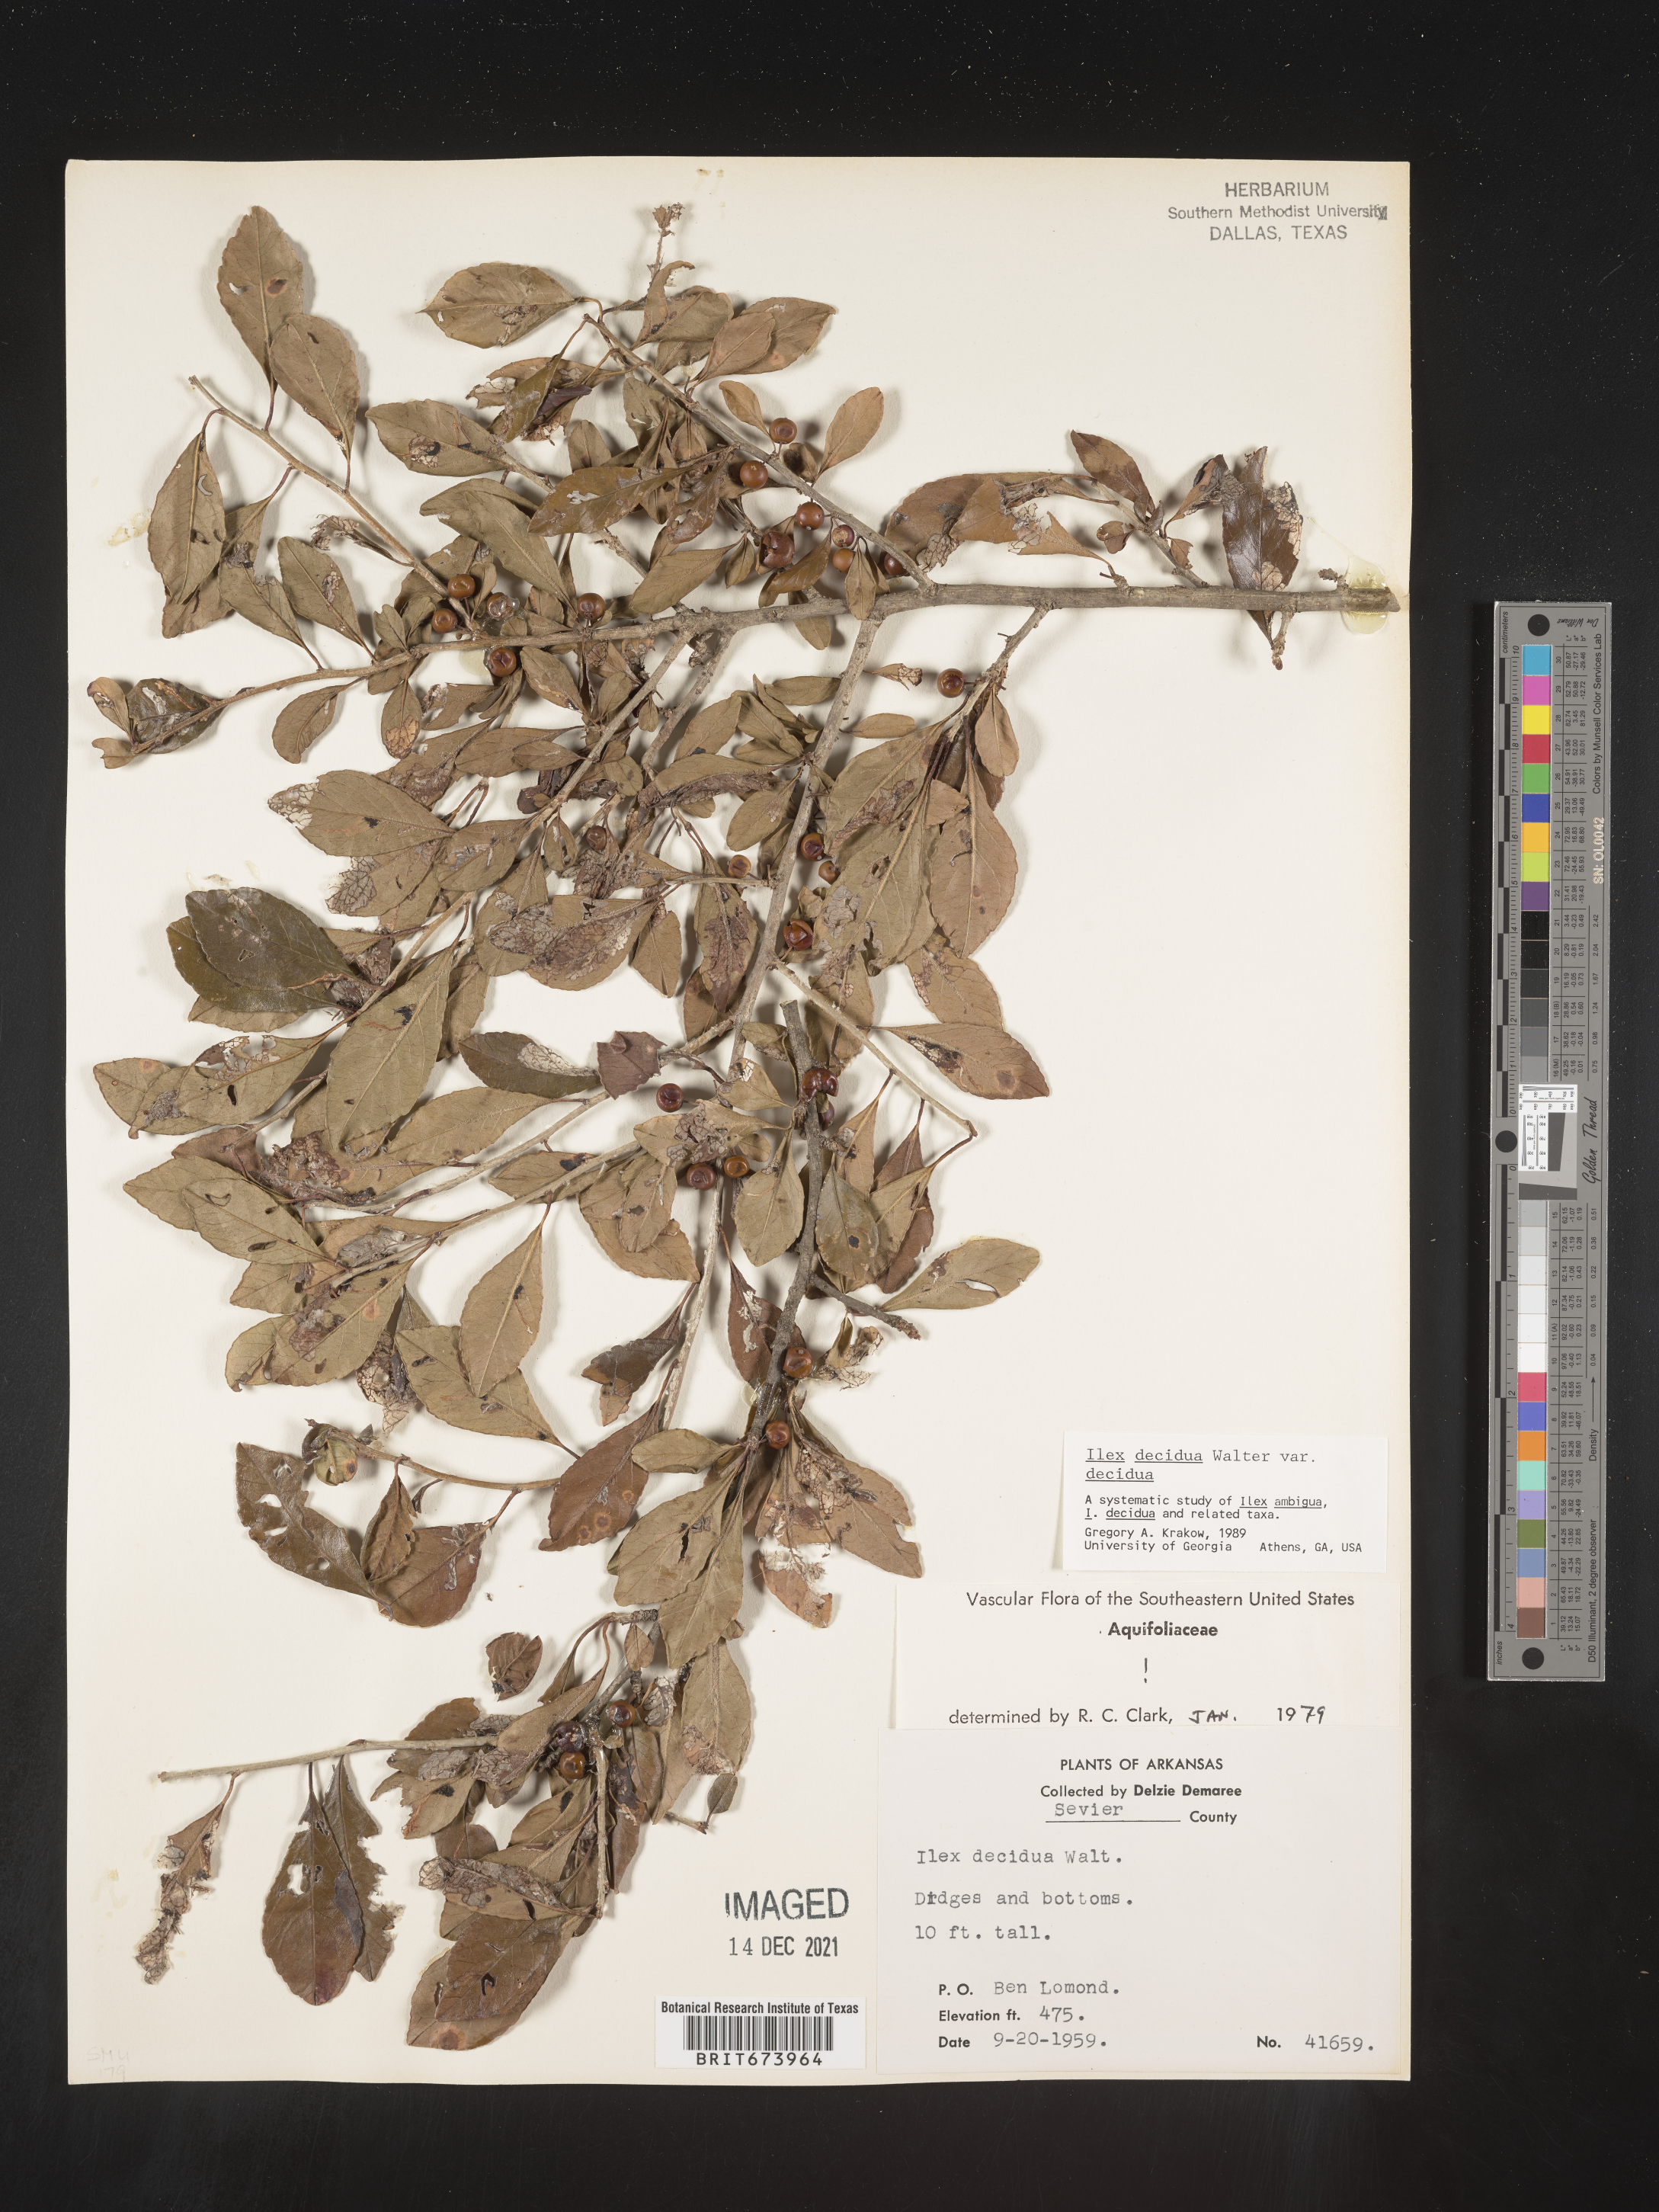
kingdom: Plantae
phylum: Tracheophyta
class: Magnoliopsida
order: Aquifoliales
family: Aquifoliaceae
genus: Ilex
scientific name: Ilex decidua
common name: Possum-haw
